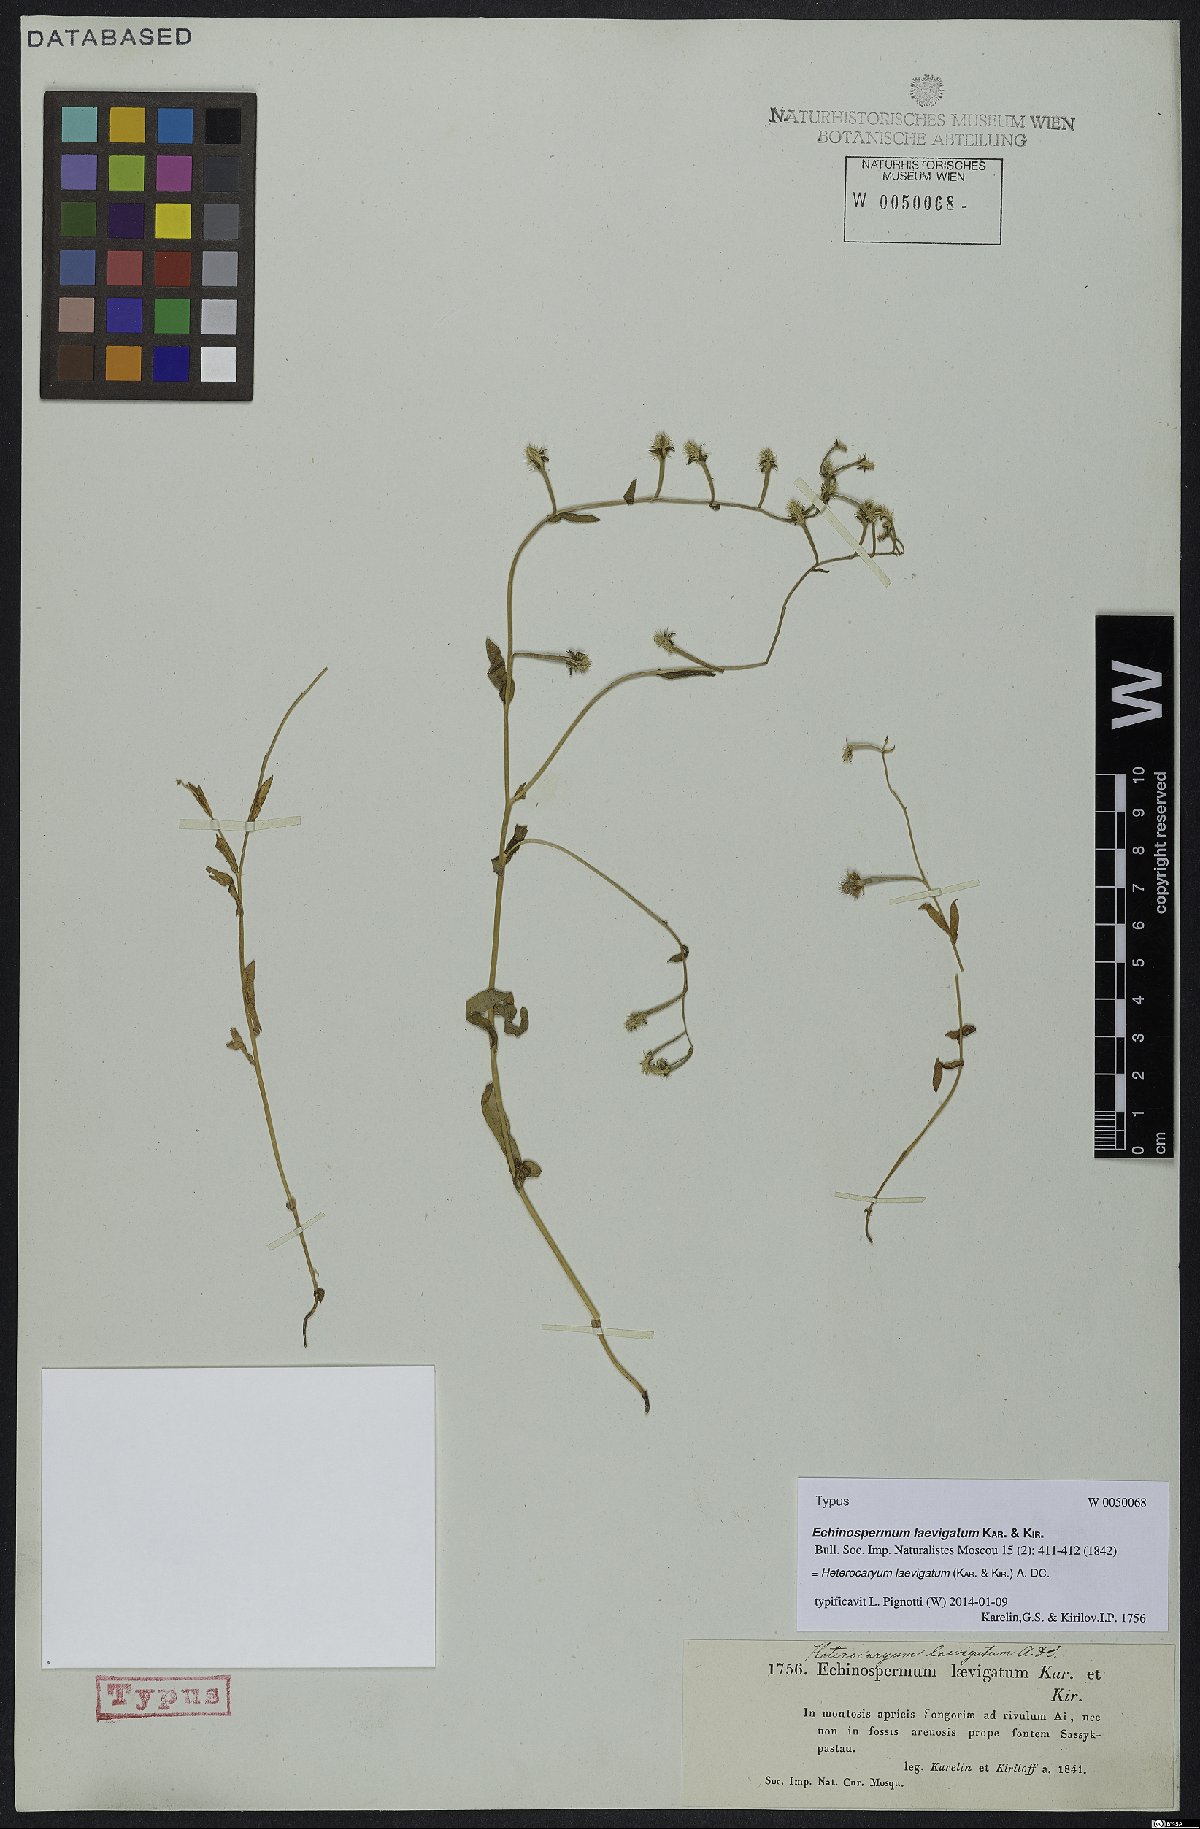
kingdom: Plantae
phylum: Tracheophyta
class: Magnoliopsida
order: Boraginales
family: Boraginaceae
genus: Heterocaryum
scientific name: Heterocaryum laevigatum
